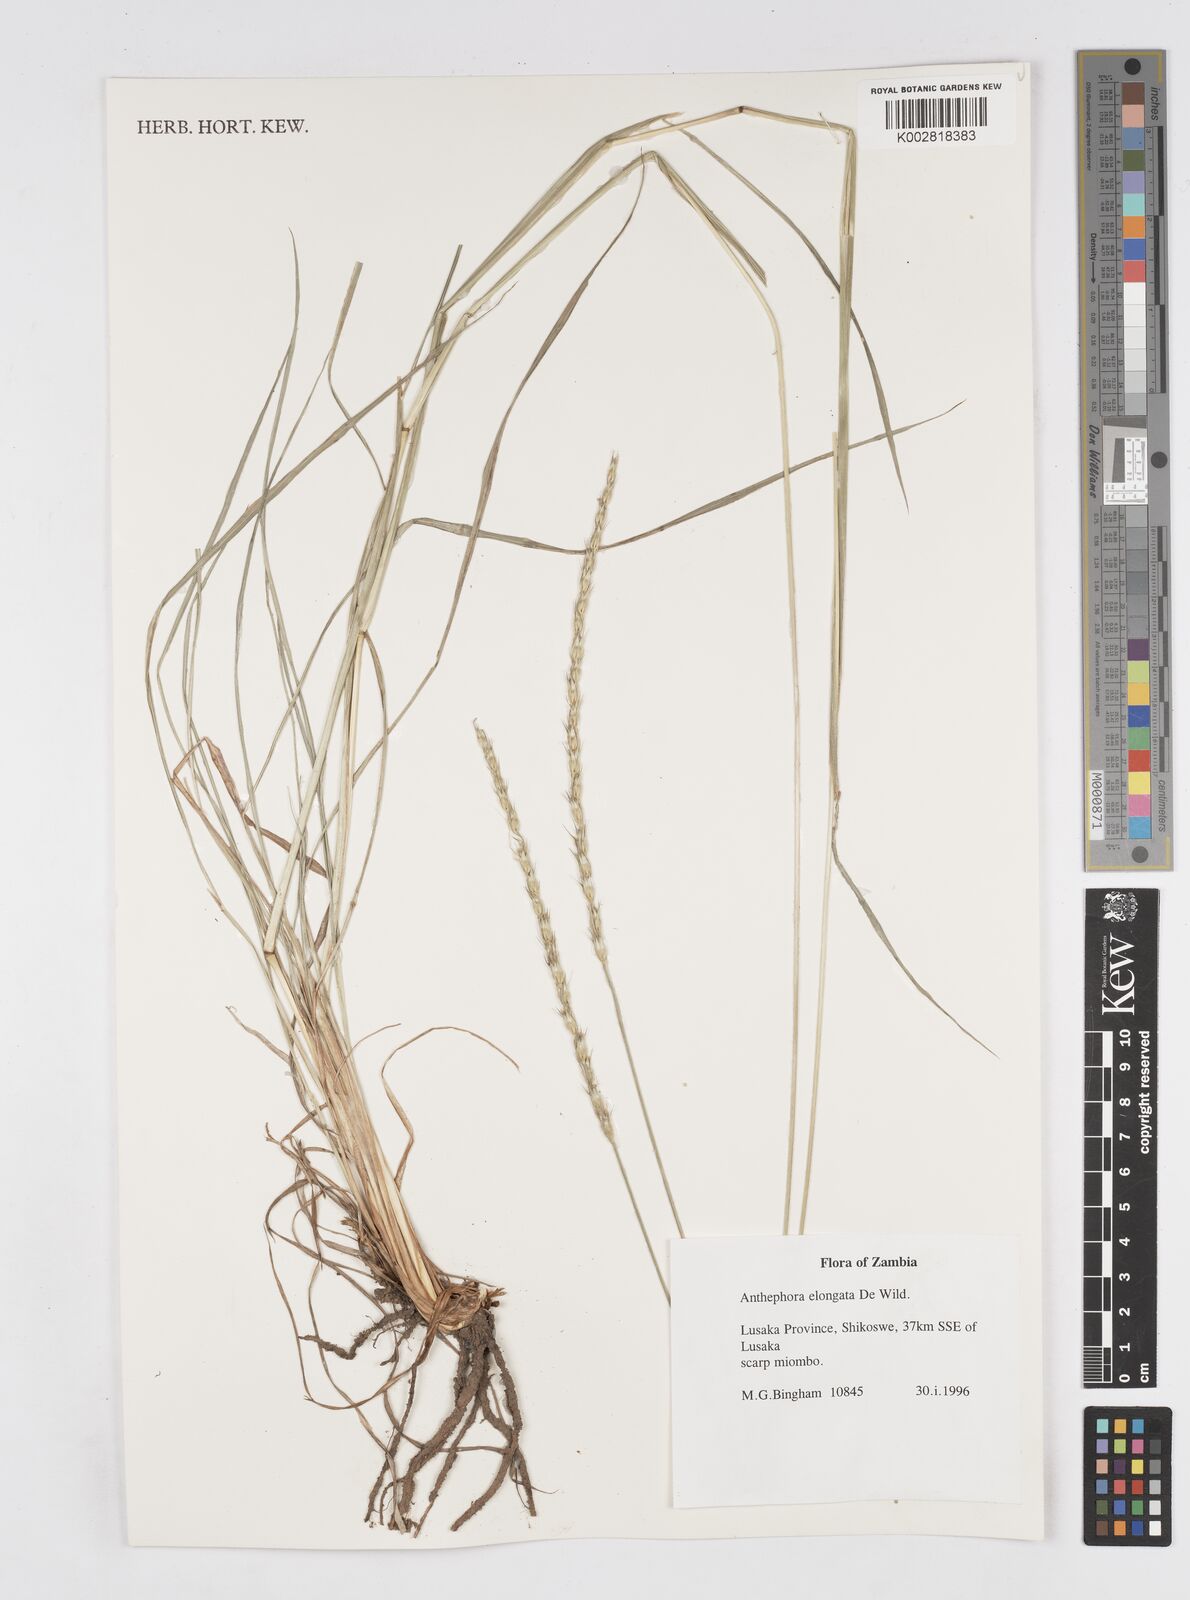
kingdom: Plantae
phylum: Tracheophyta
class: Liliopsida
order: Poales
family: Poaceae
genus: Anthephora
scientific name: Anthephora elongata
